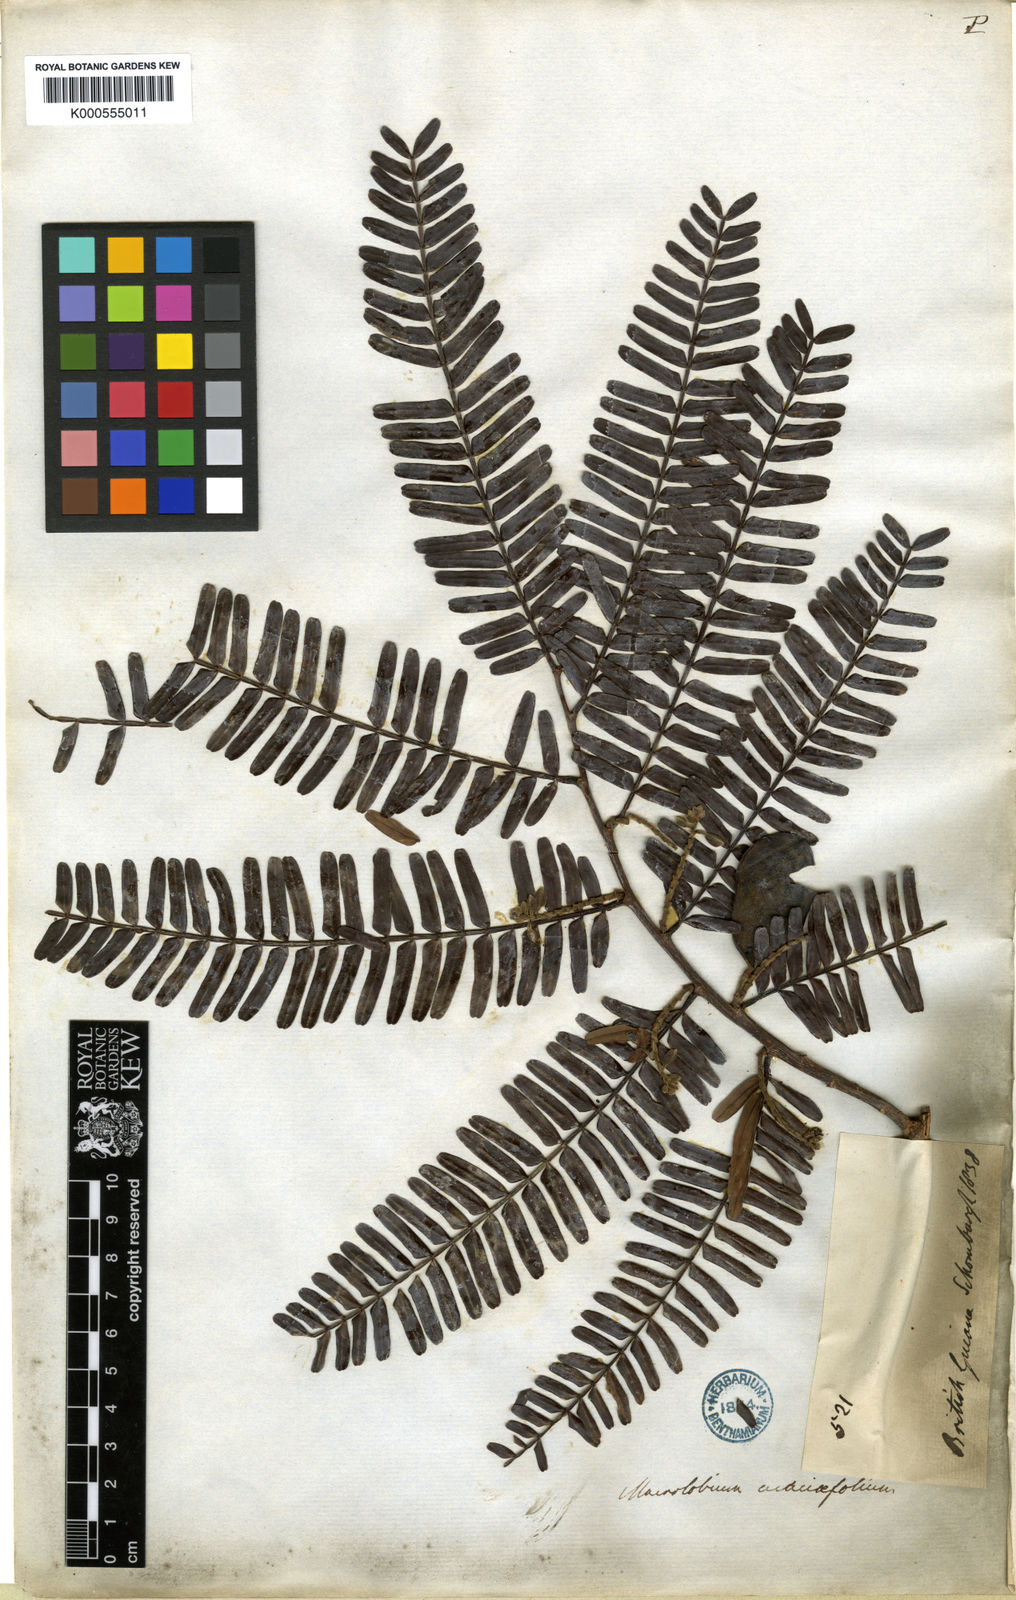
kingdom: Plantae
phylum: Tracheophyta
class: Magnoliopsida
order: Fabales
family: Fabaceae
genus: Macrolobium
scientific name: Macrolobium
